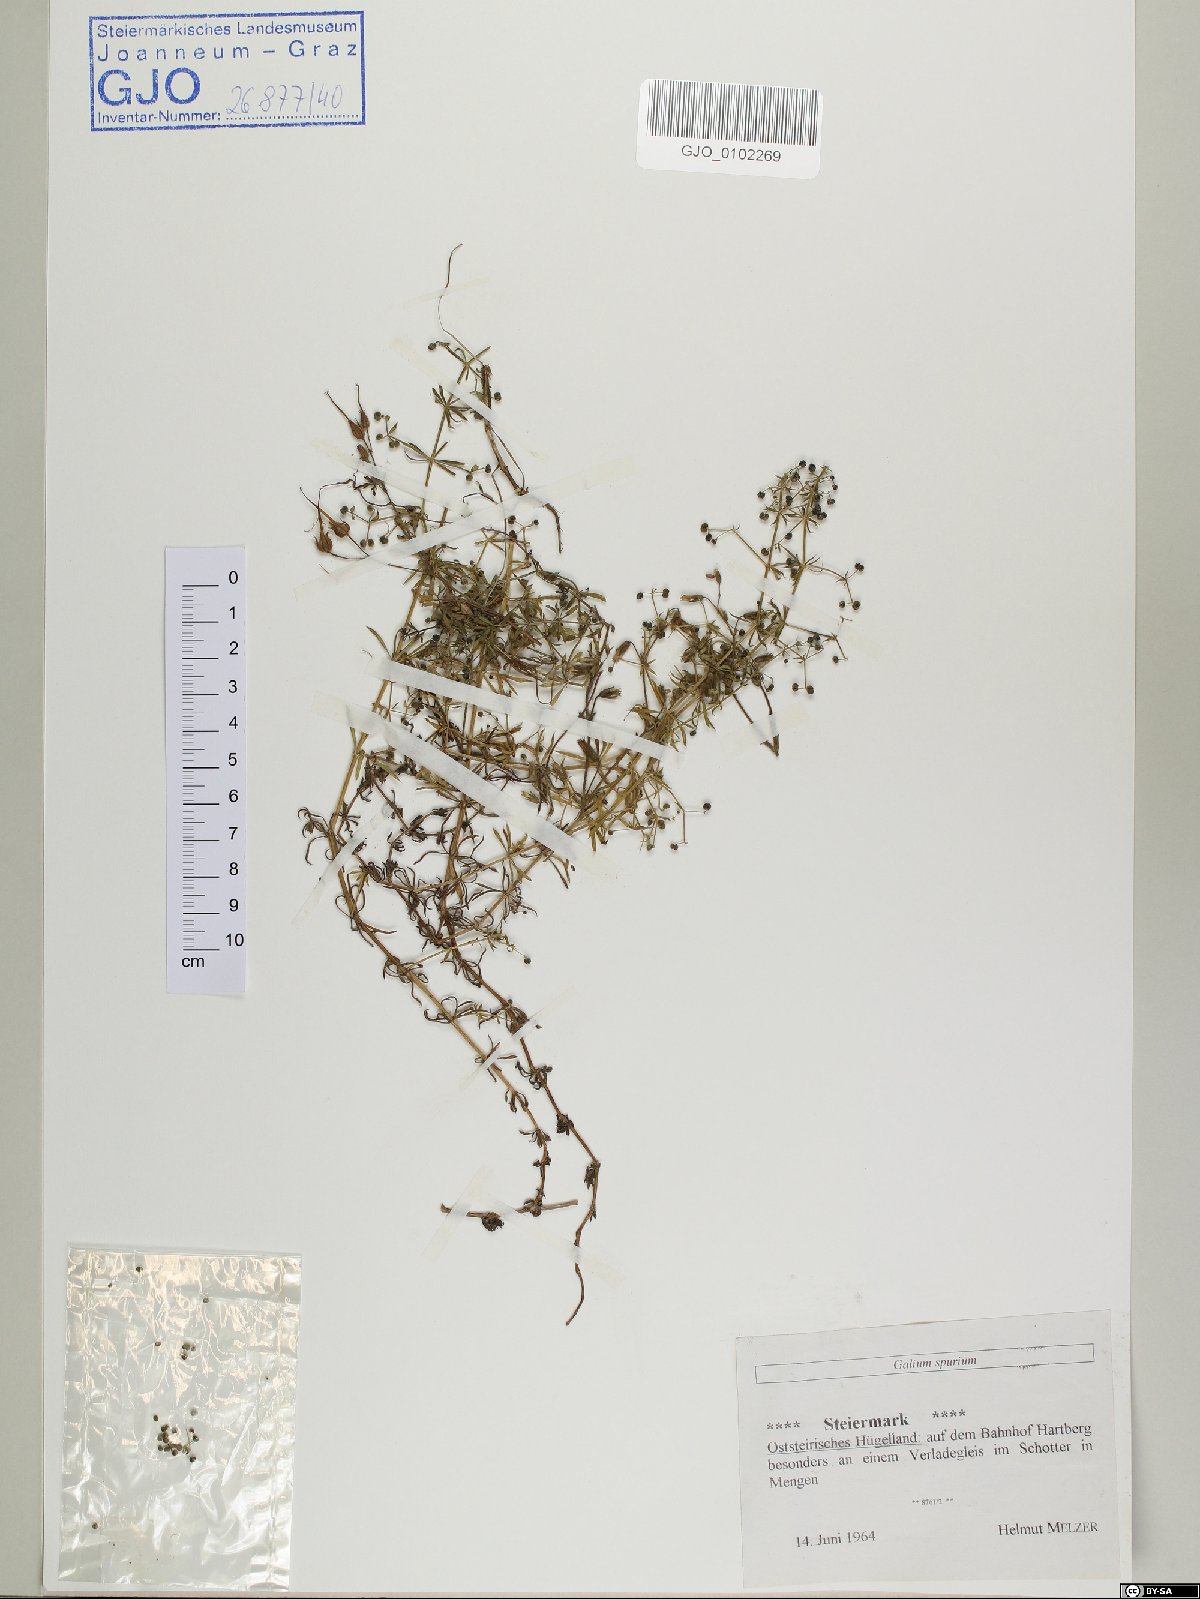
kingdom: Plantae
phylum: Tracheophyta
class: Magnoliopsida
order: Gentianales
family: Rubiaceae
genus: Galium
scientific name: Galium spurium
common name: False cleavers
